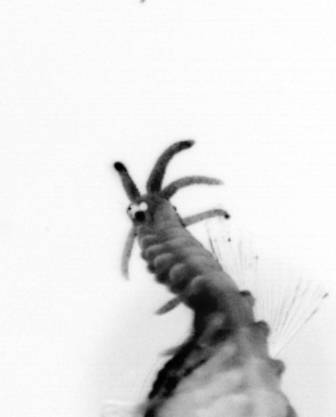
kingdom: Animalia
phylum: Annelida
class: Polychaeta
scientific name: Polychaeta
